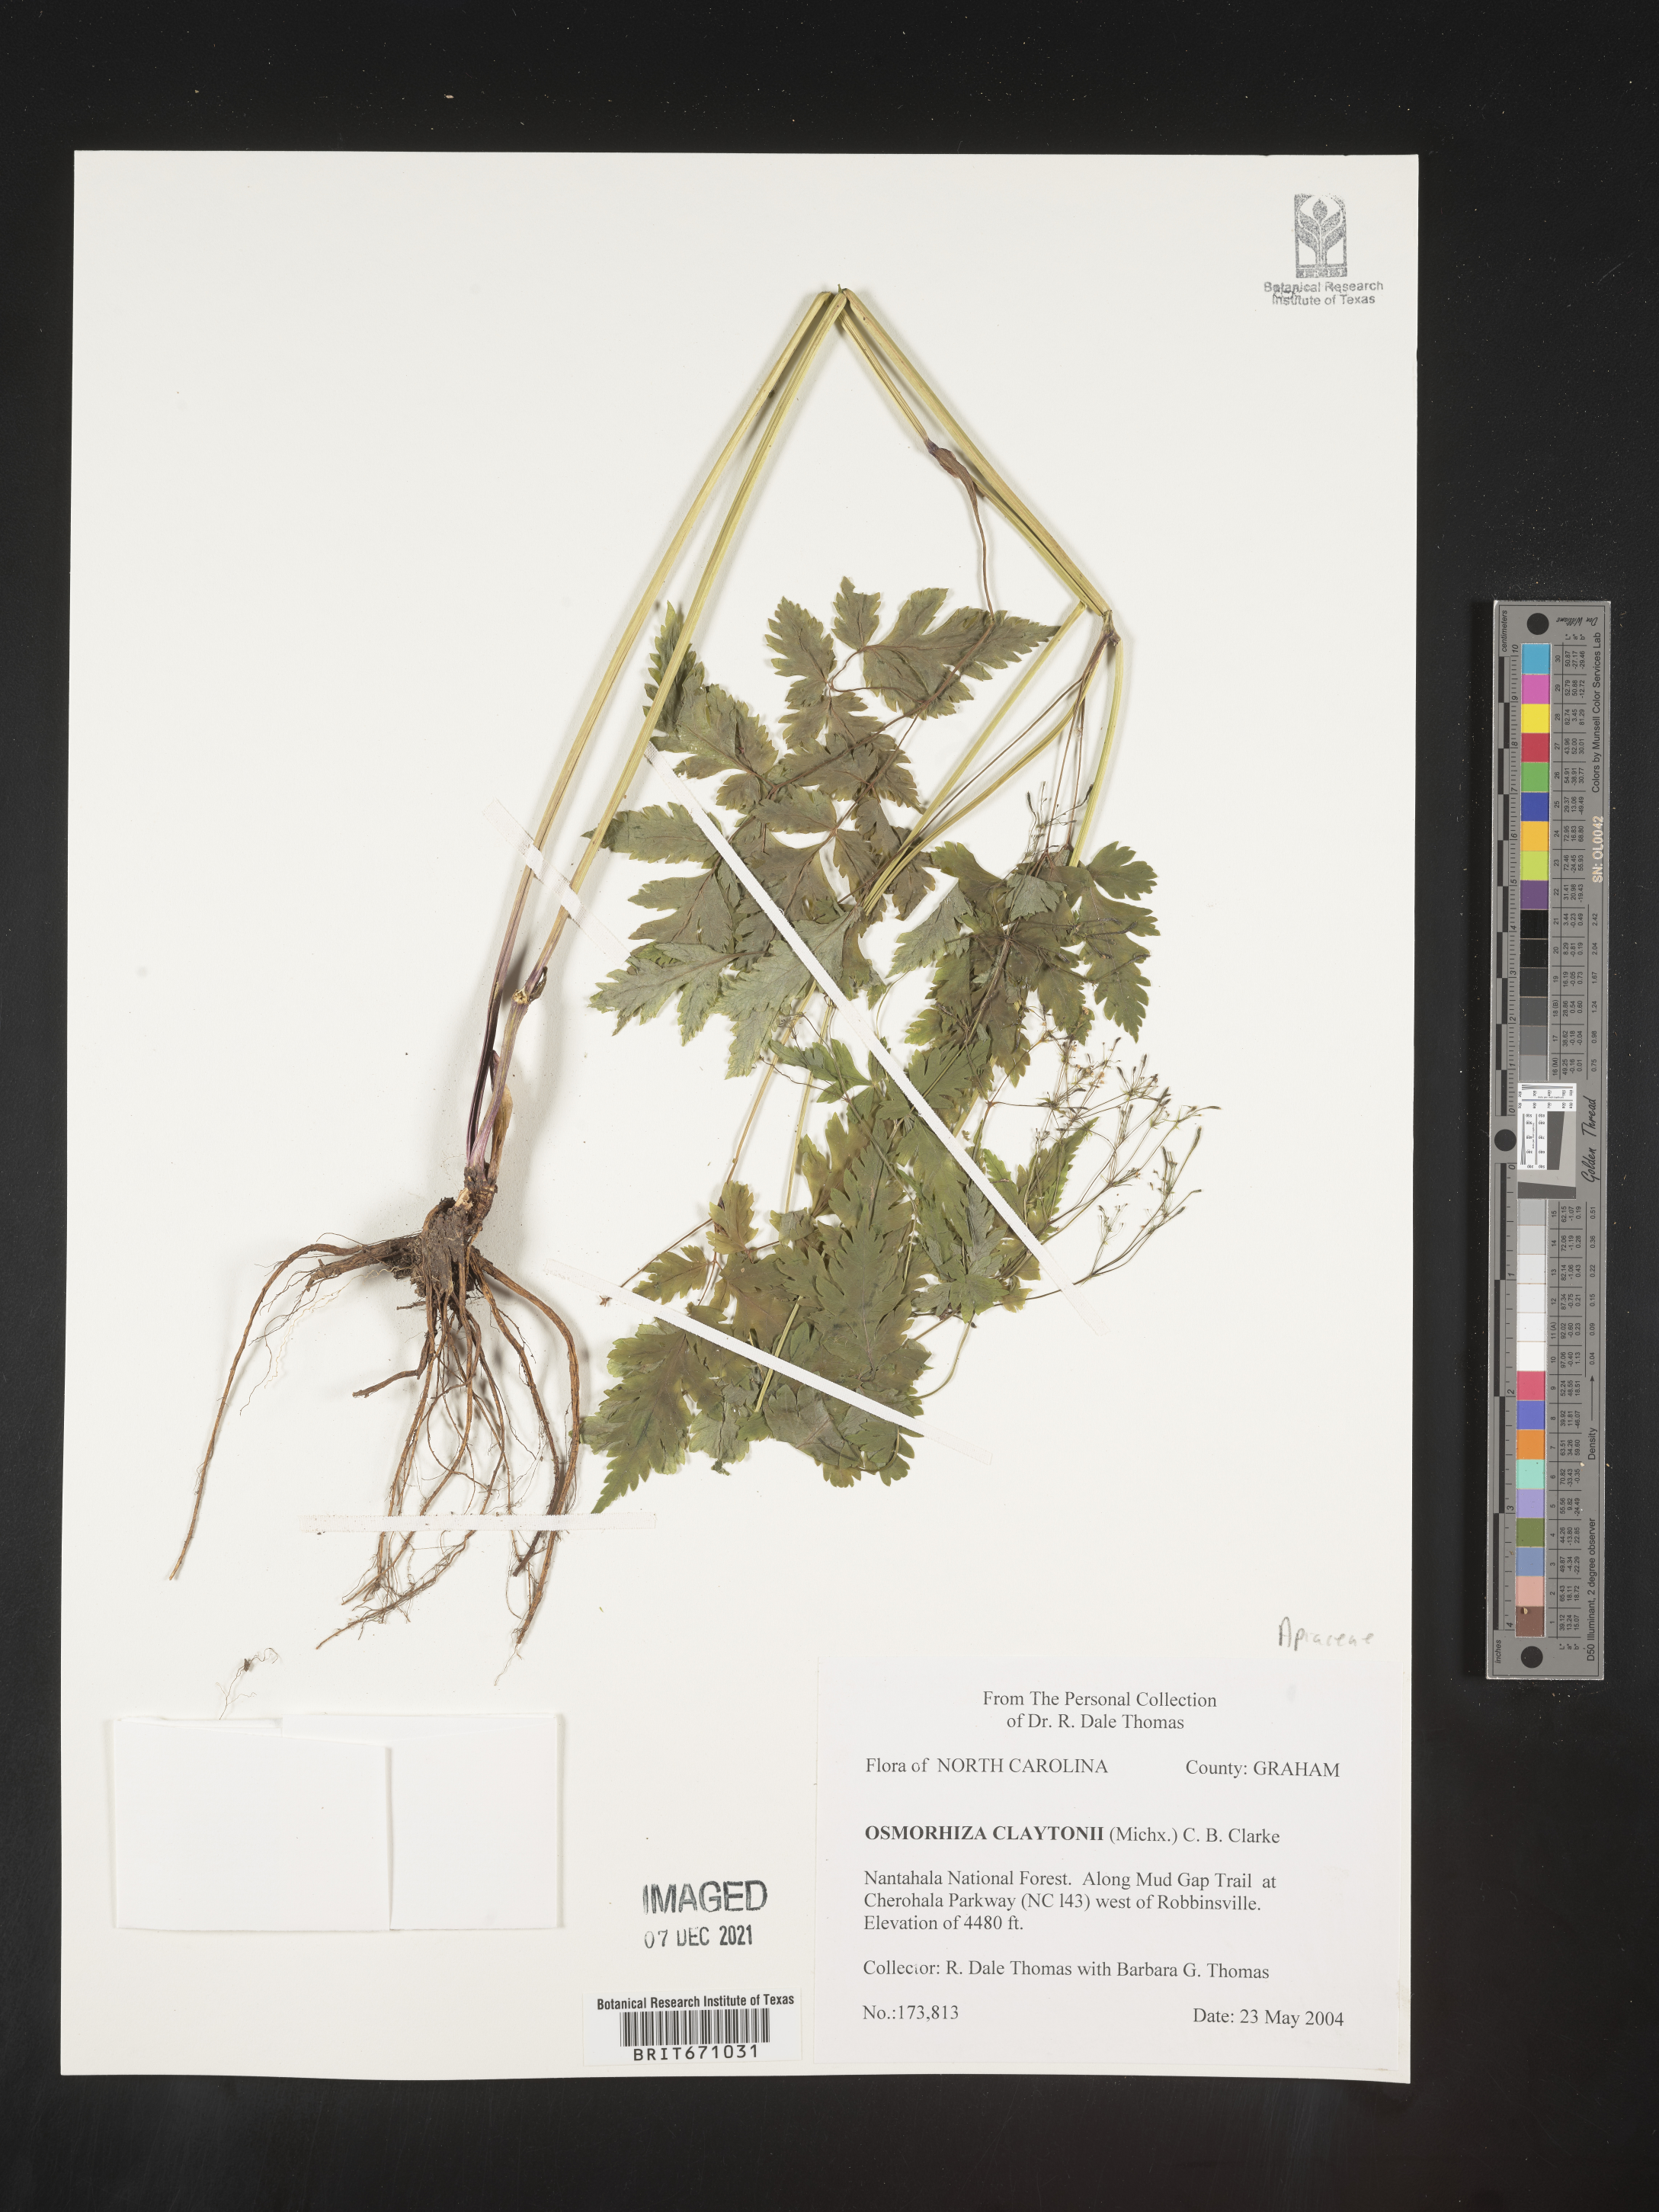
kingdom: Plantae
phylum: Tracheophyta
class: Magnoliopsida
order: Apiales
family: Apiaceae
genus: Osmorhiza
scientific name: Osmorhiza claytonii
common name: Hairy sweet cicely
